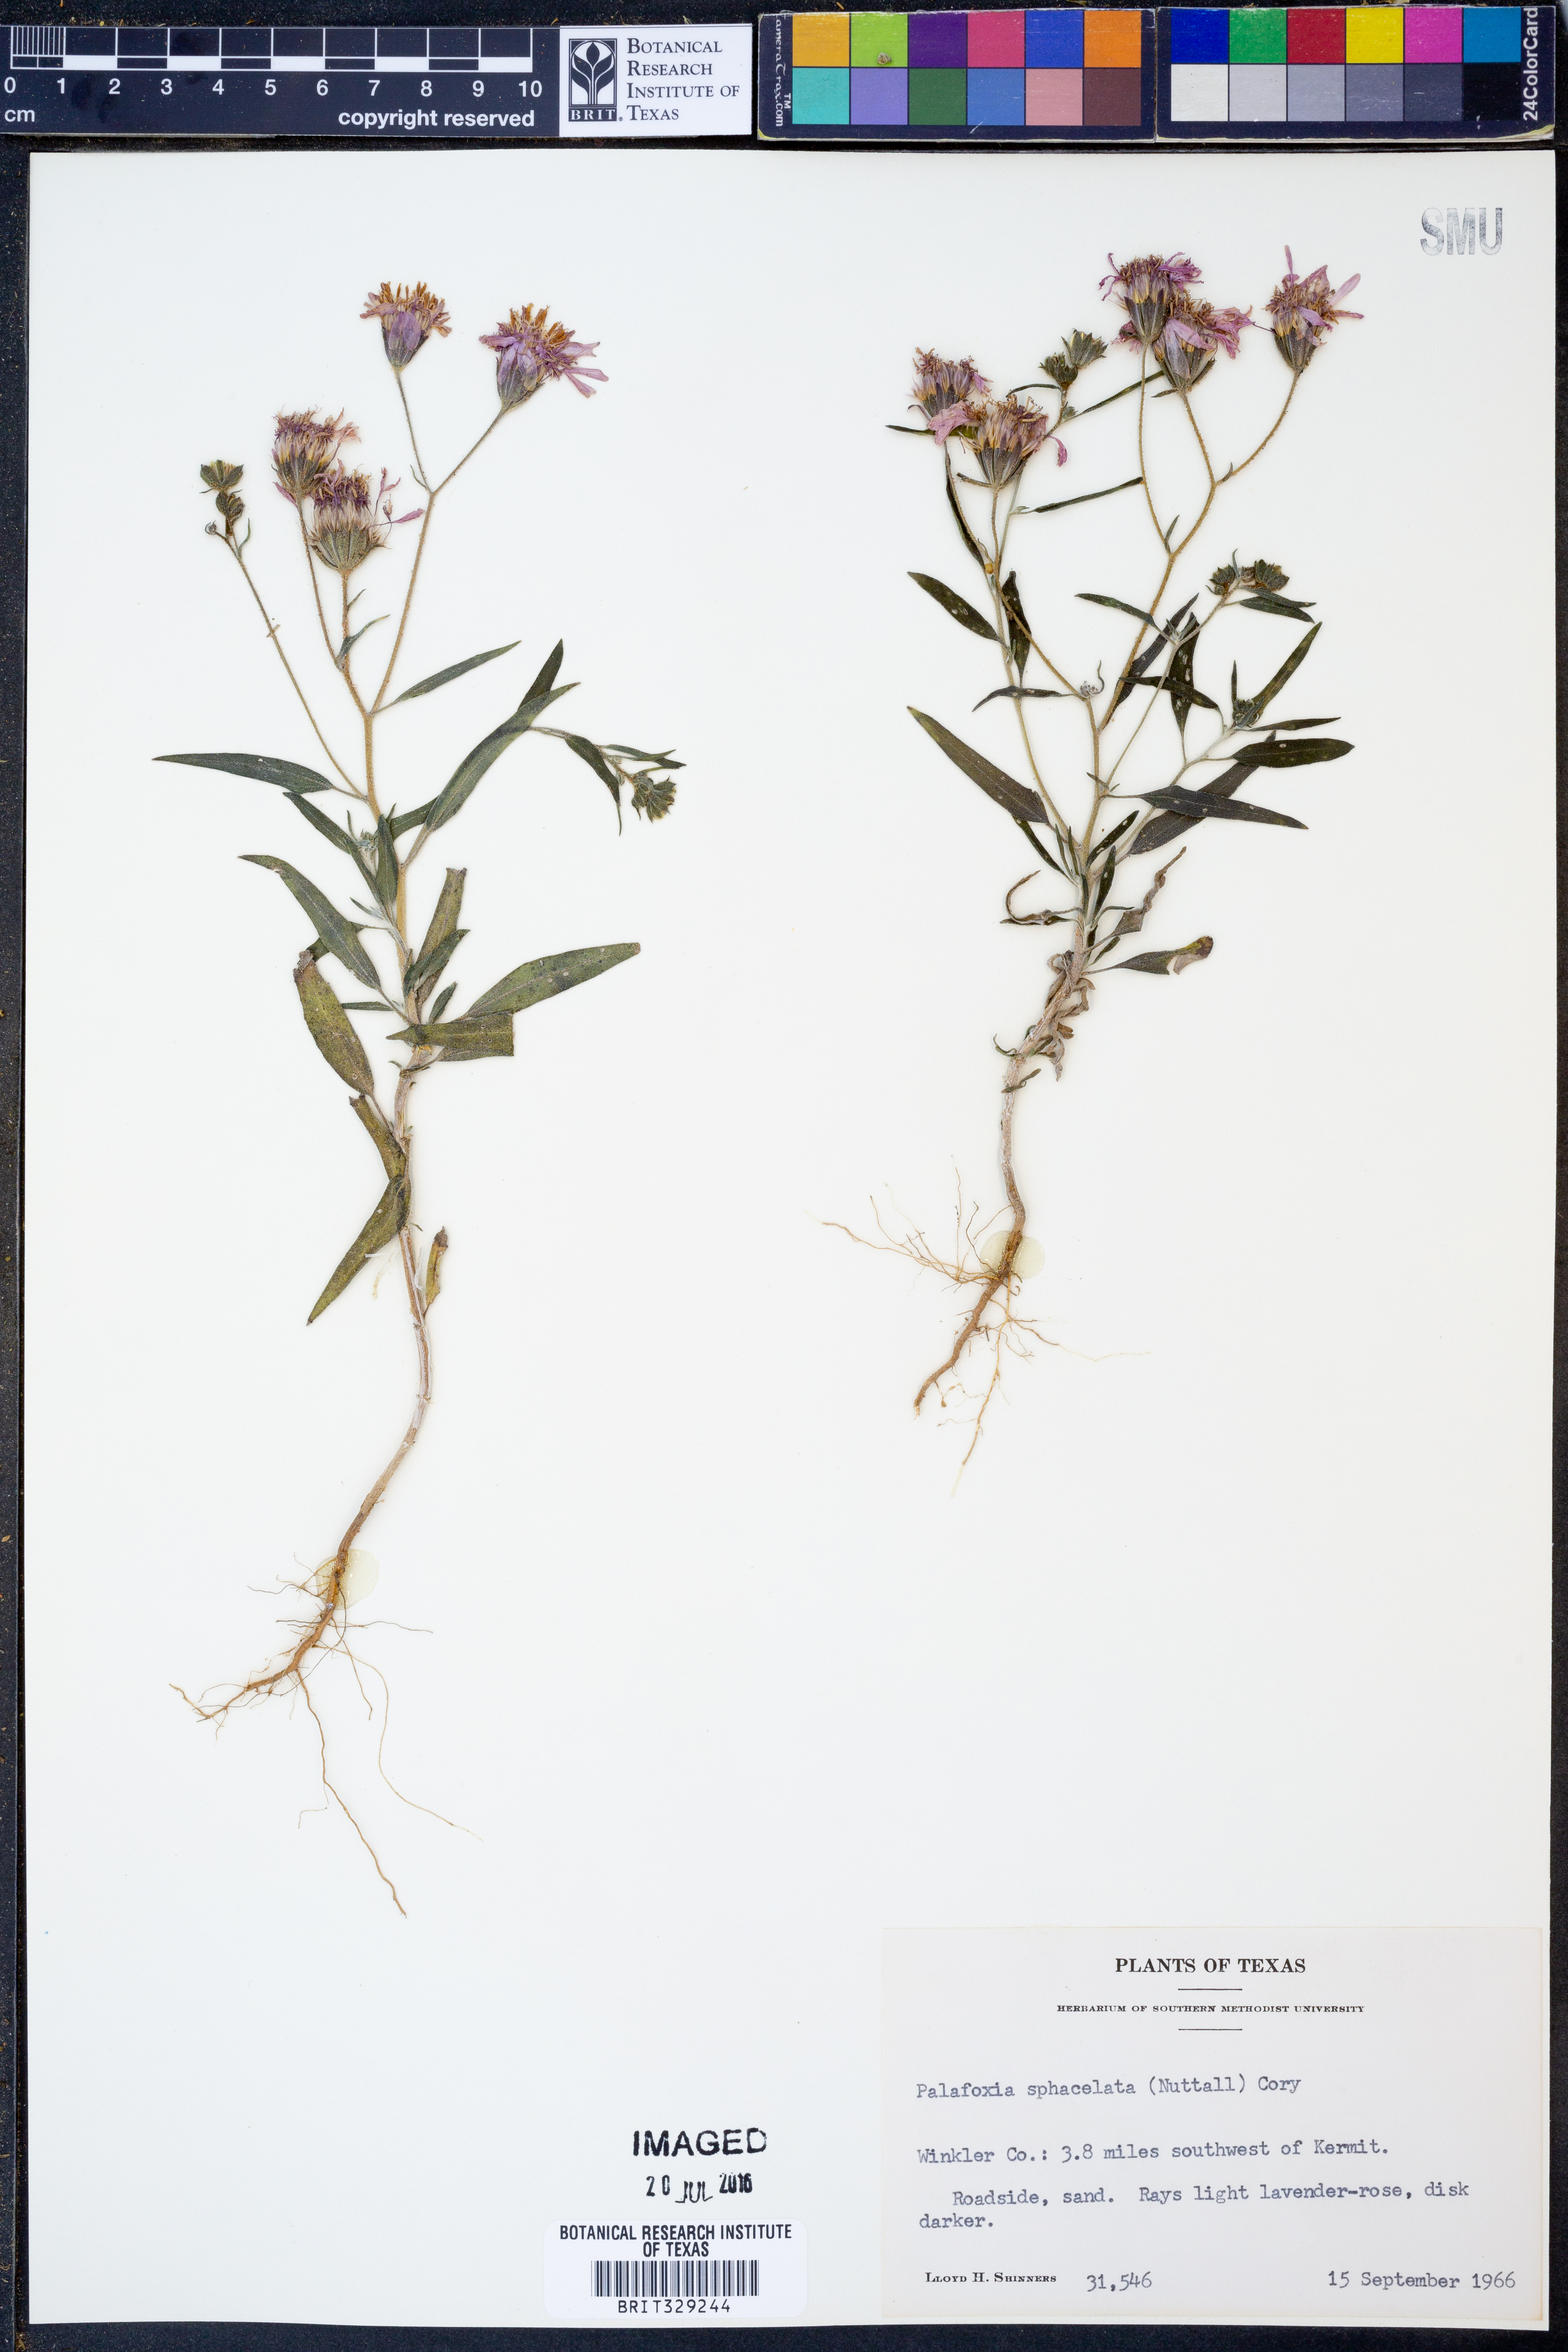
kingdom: Plantae
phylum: Tracheophyta
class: Magnoliopsida
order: Asterales
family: Asteraceae
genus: Palafoxia
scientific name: Palafoxia sphacelata
